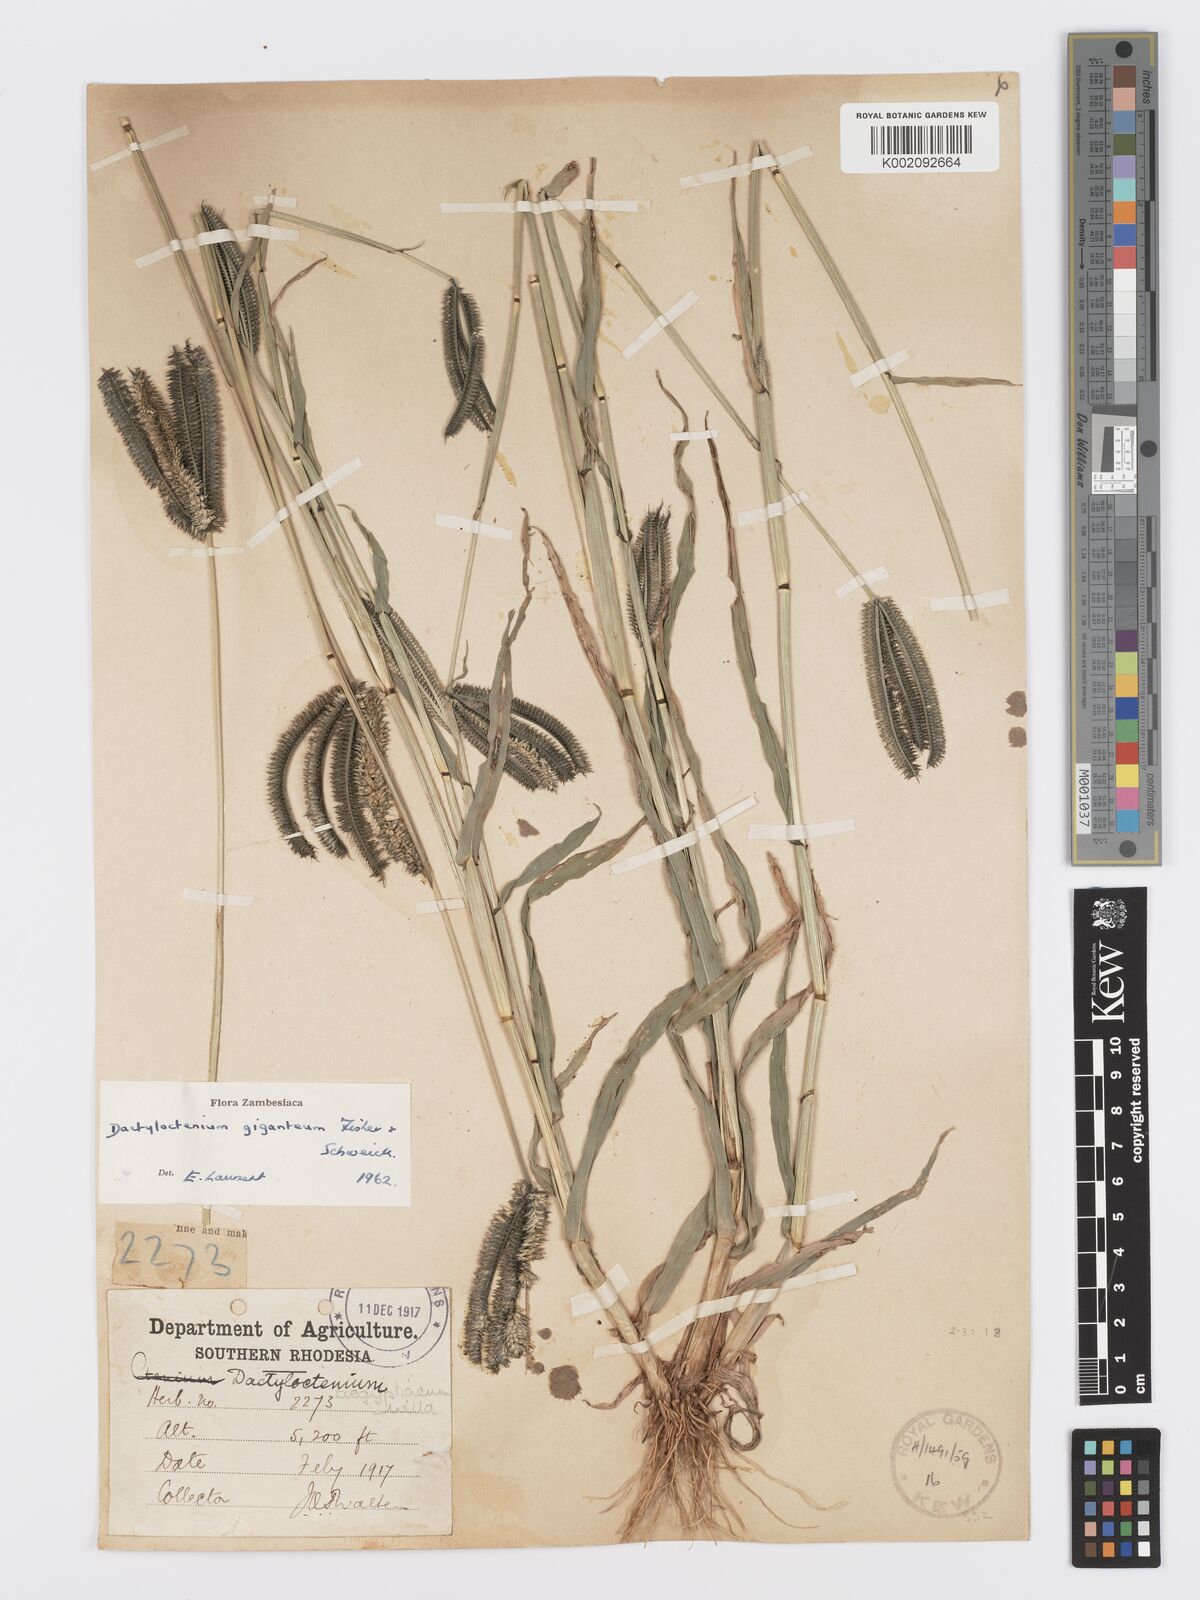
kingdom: Plantae
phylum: Tracheophyta
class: Liliopsida
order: Poales
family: Poaceae
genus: Dactyloctenium
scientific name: Dactyloctenium giganteum
